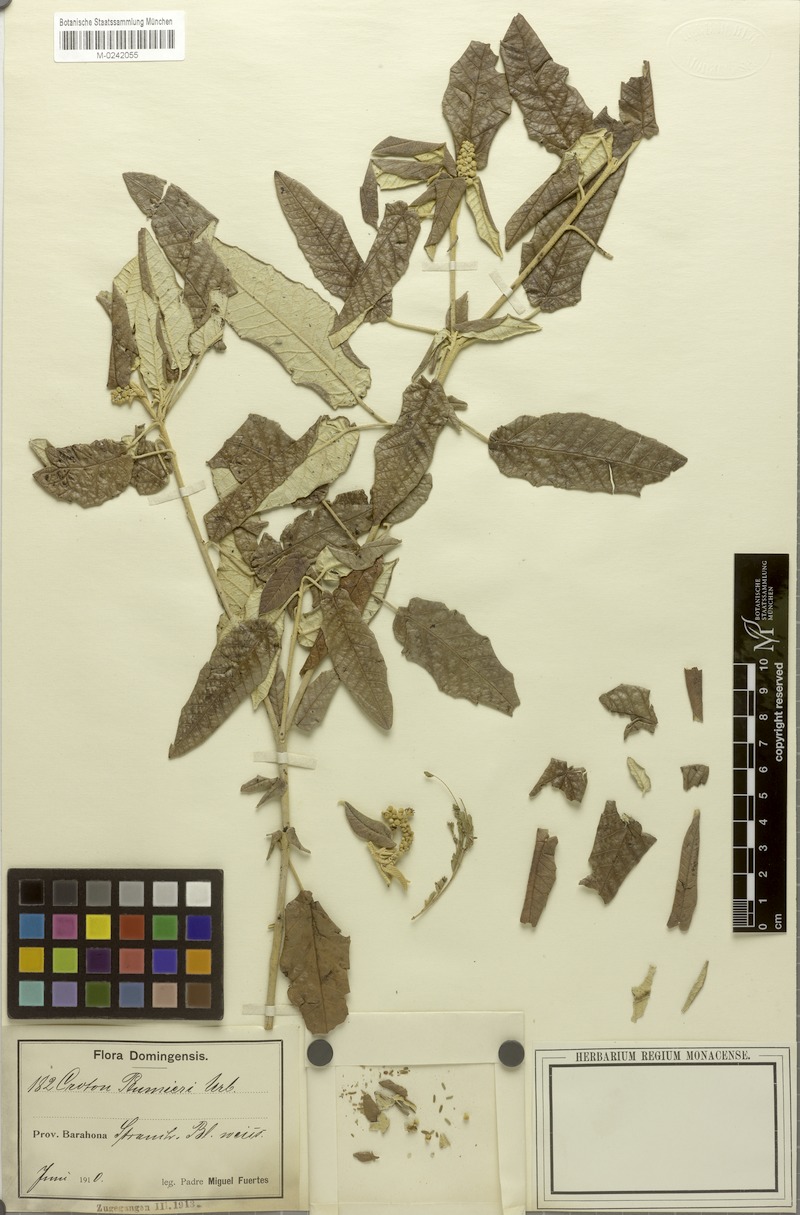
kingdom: Plantae
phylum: Tracheophyta
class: Magnoliopsida
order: Malpighiales
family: Euphorbiaceae
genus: Croton
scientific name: Croton vaillantii
